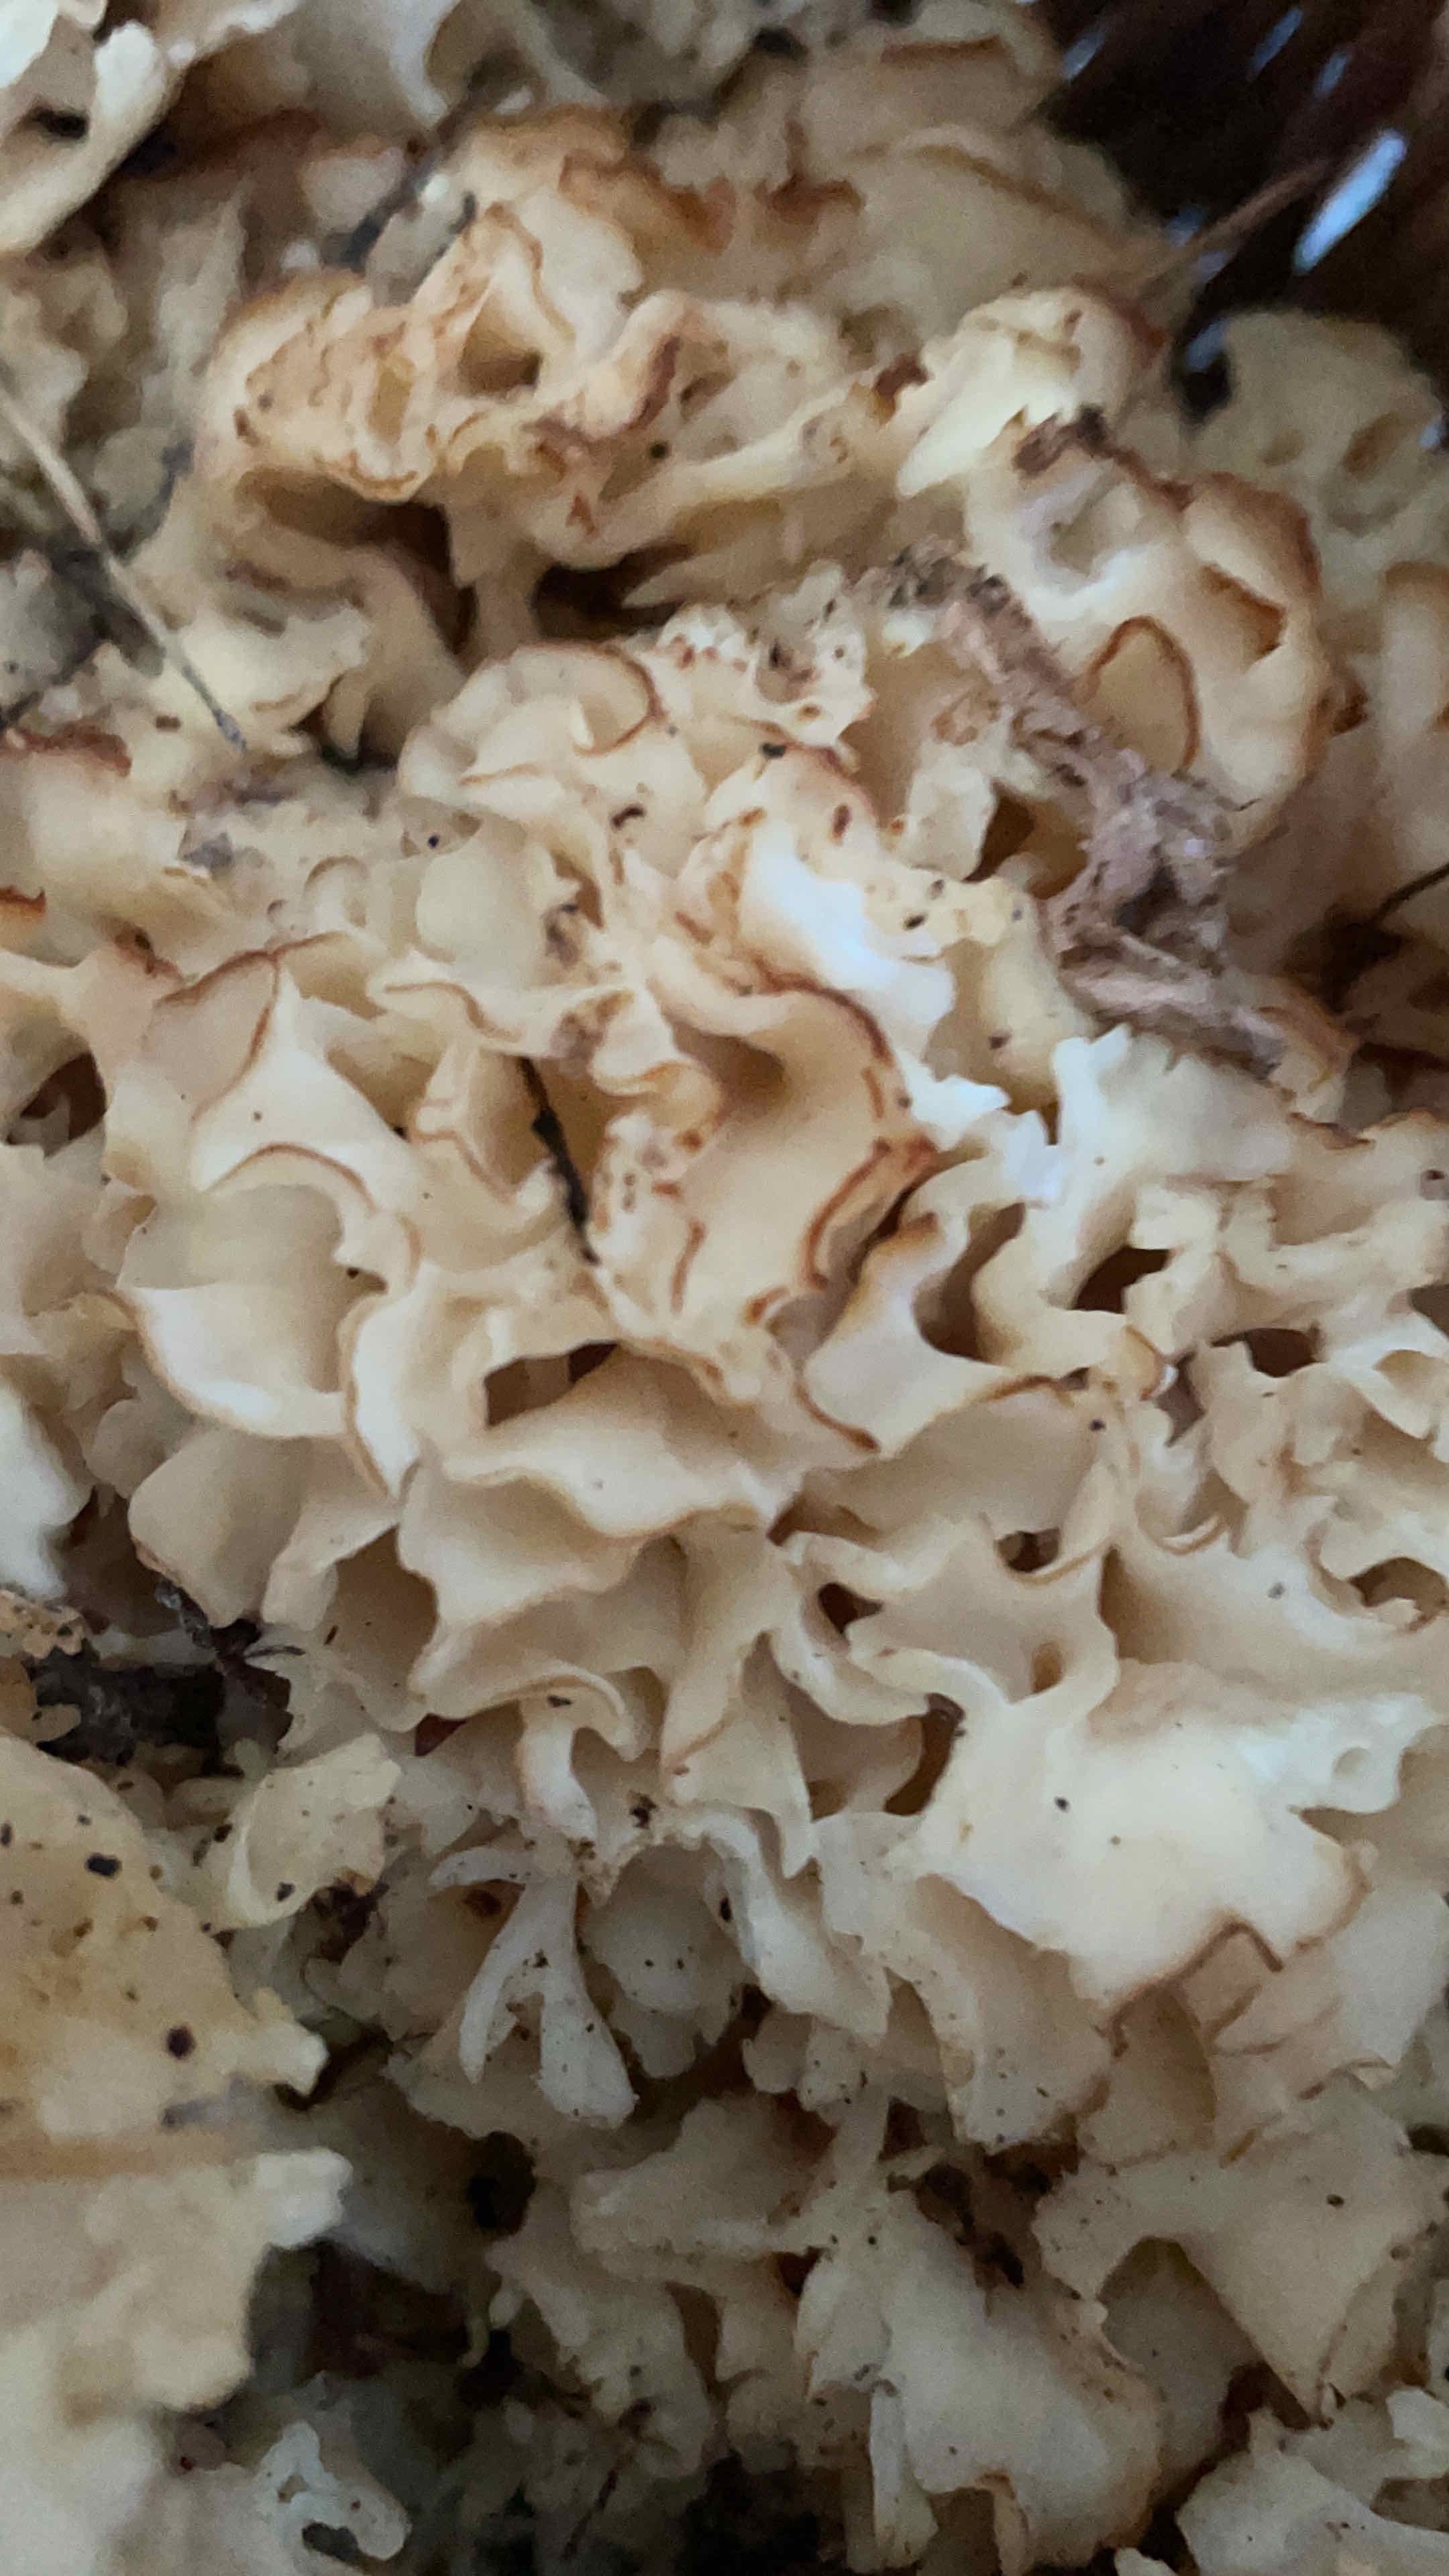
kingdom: Fungi
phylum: Basidiomycota
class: Agaricomycetes
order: Polyporales
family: Sparassidaceae
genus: Sparassis
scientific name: Sparassis crispa
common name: kruset blomkålssvamp
